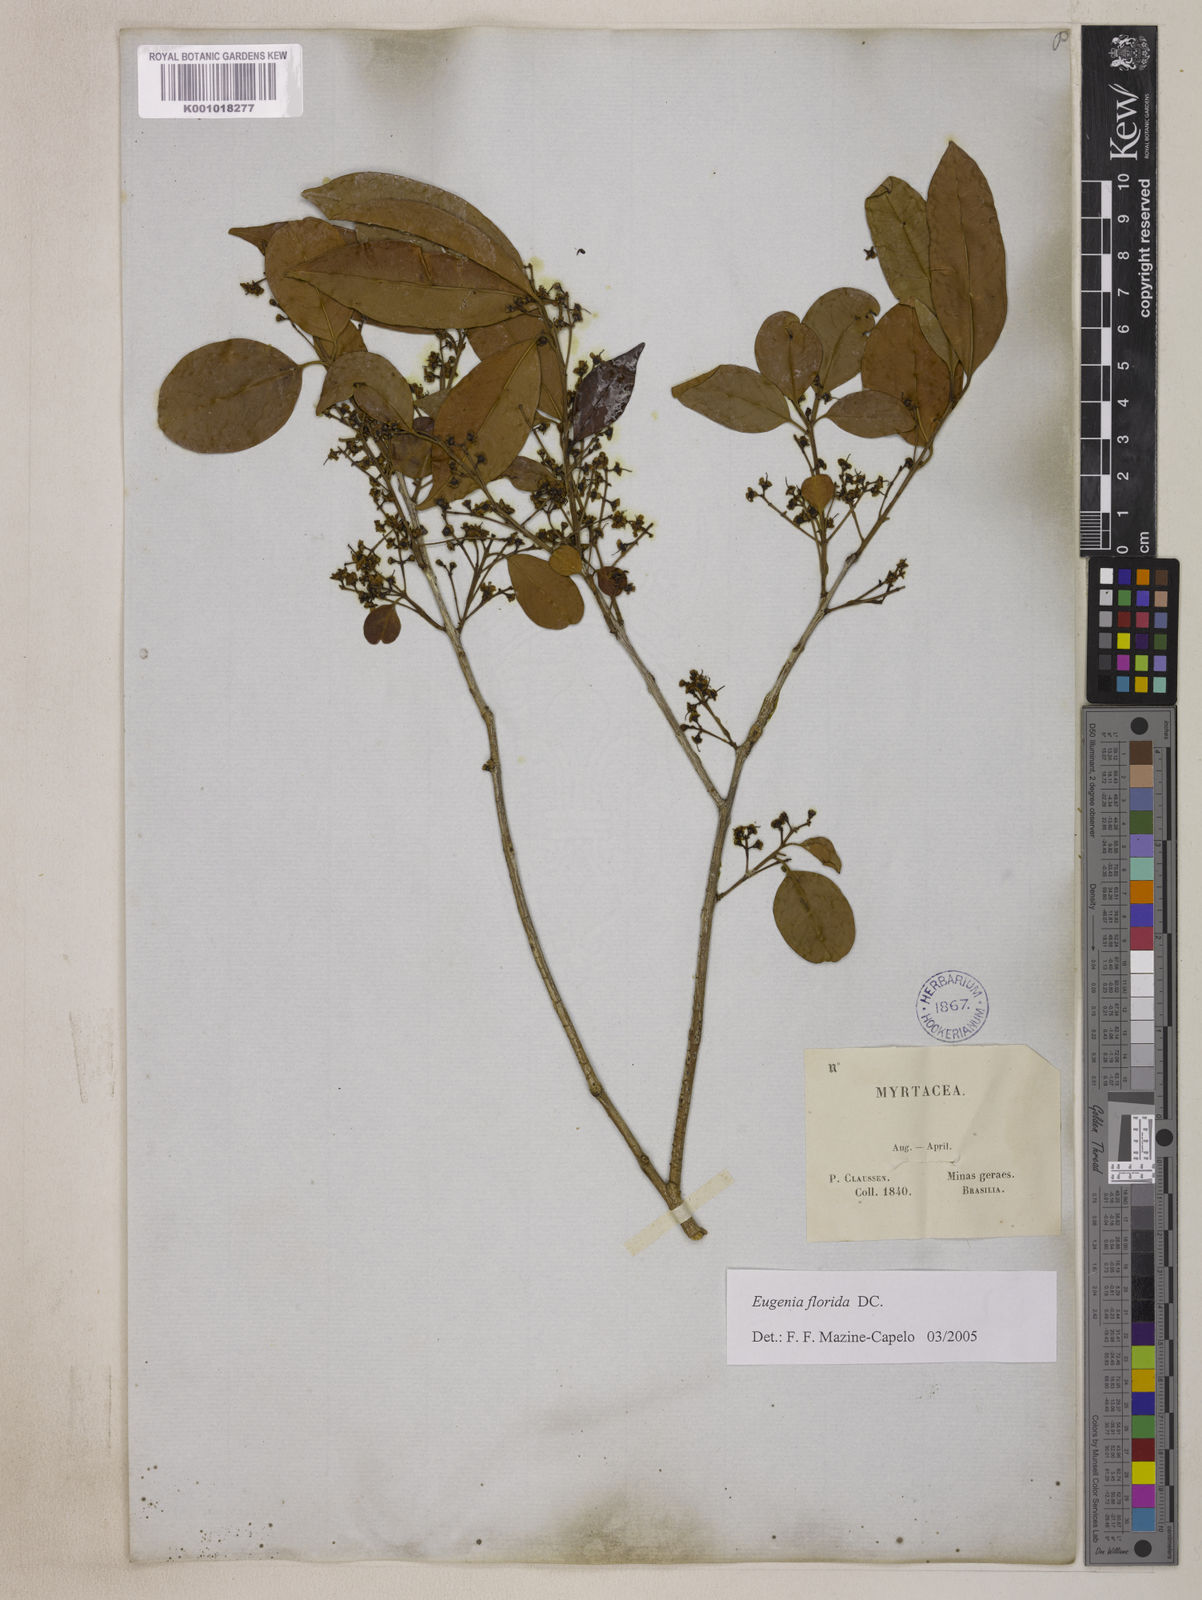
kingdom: Plantae
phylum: Tracheophyta
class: Magnoliopsida
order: Myrtales
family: Myrtaceae
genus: Eugenia
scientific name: Eugenia florida
